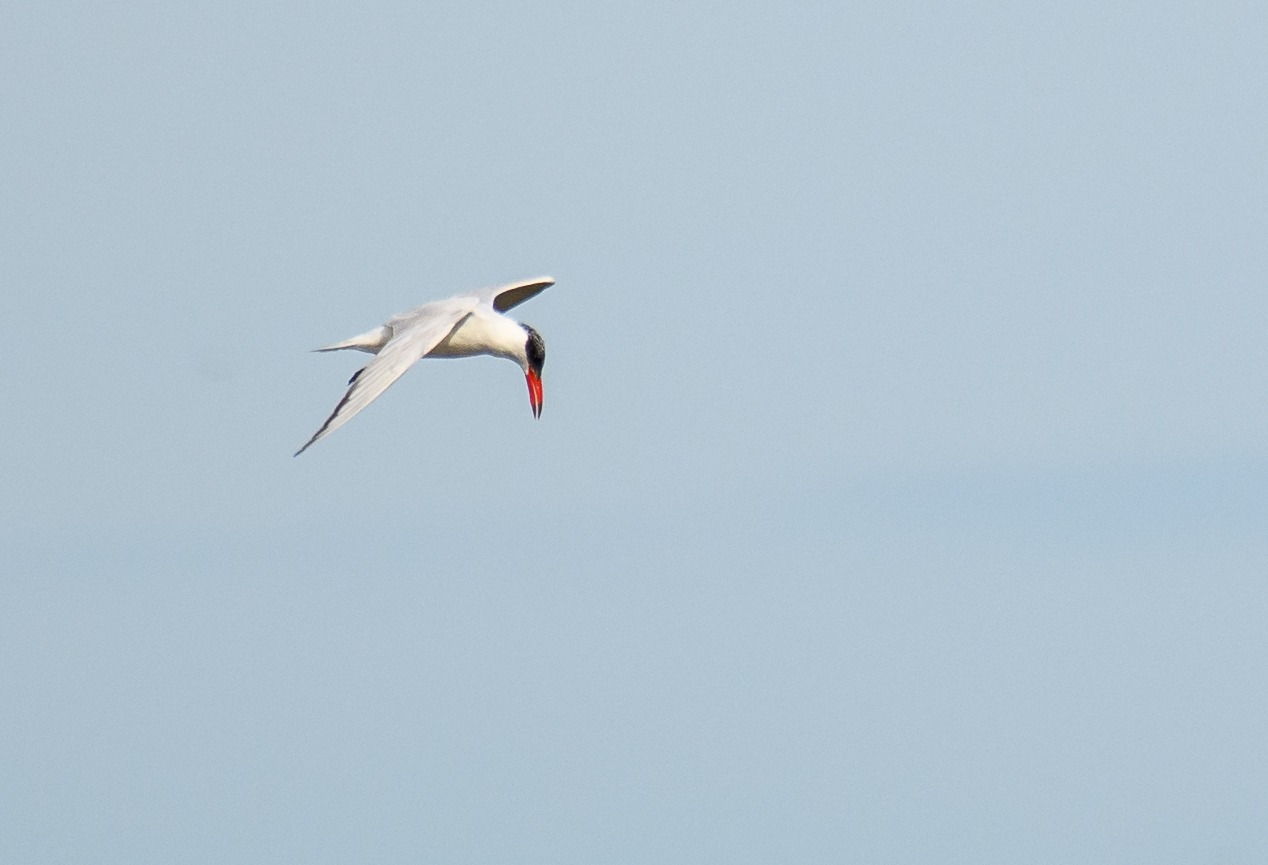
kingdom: Animalia
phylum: Chordata
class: Aves
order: Charadriiformes
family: Laridae
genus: Hydroprogne
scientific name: Hydroprogne caspia
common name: Rovterne
